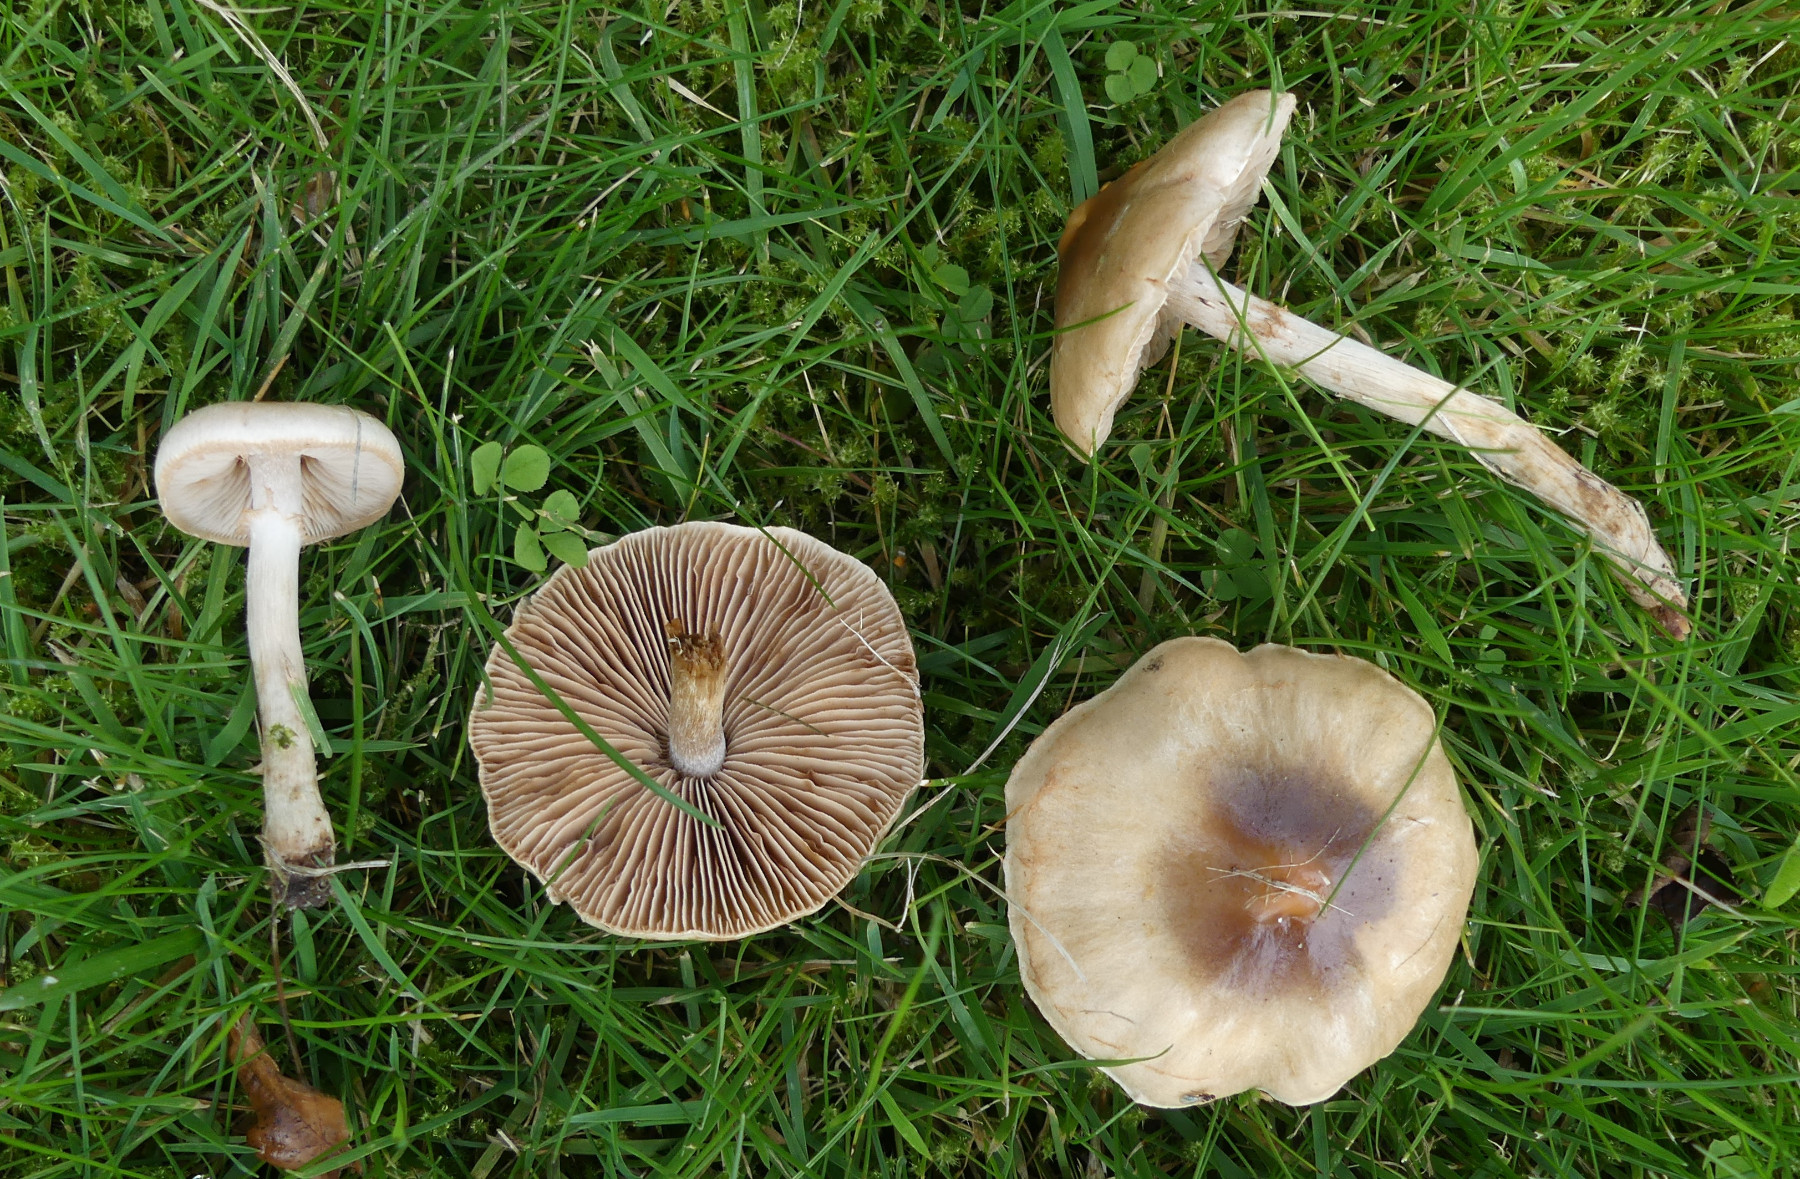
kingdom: Fungi
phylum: Basidiomycota
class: Agaricomycetes
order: Agaricales
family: Hymenogastraceae
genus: Hebeloma
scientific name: Hebeloma mesophaeum
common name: lerbrun tåreblad
